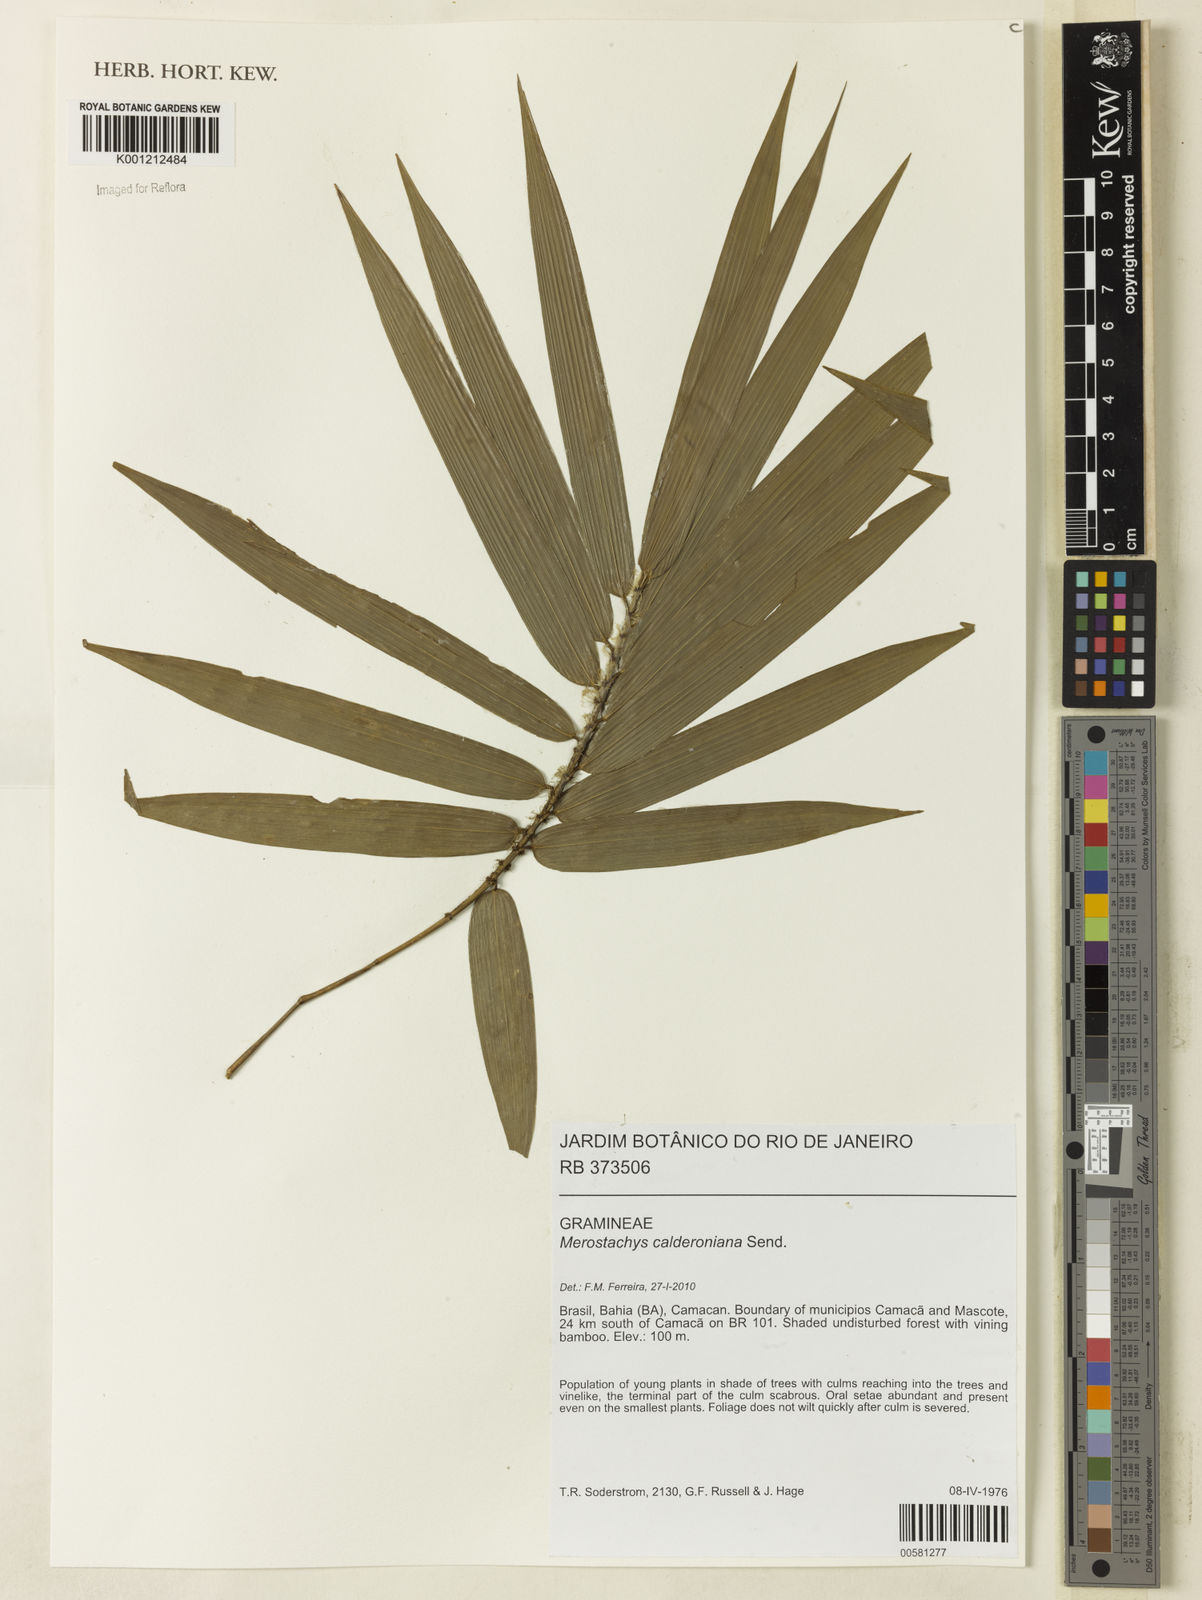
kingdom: Plantae
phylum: Tracheophyta
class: Liliopsida
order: Poales
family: Poaceae
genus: Merostachys
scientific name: Merostachys calderoniana
